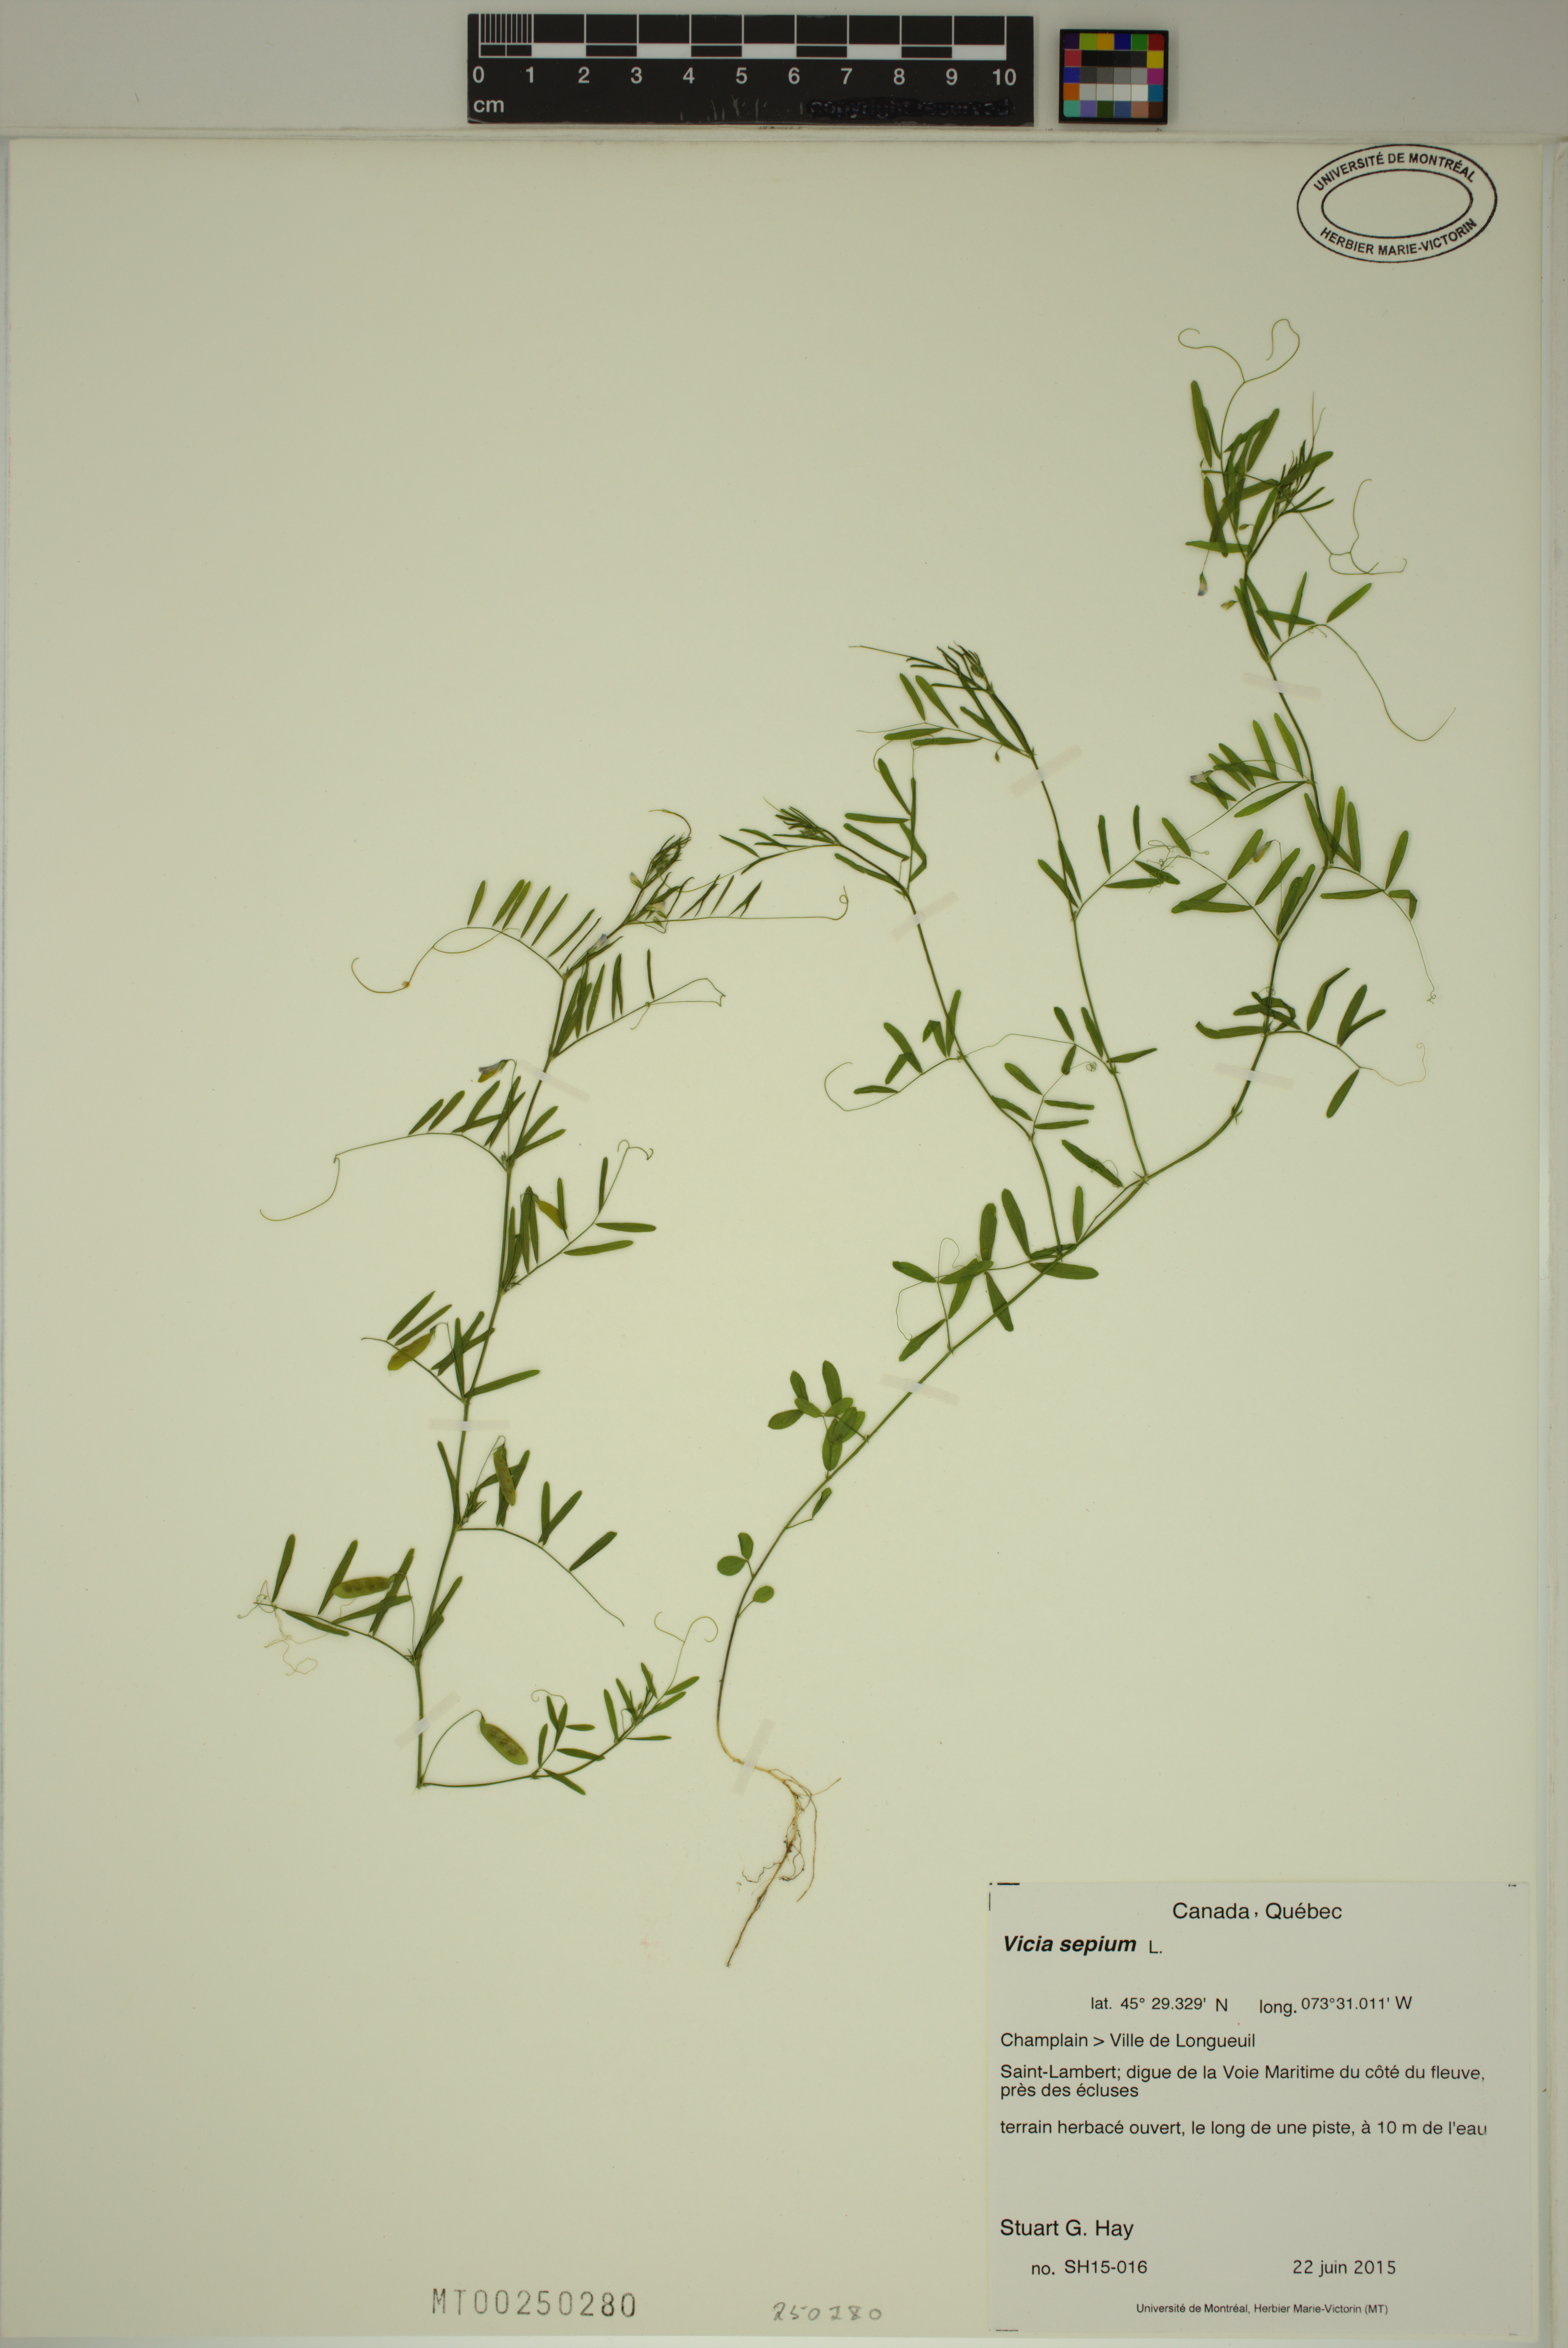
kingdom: Plantae
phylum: Tracheophyta
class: Magnoliopsida
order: Fabales
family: Fabaceae
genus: Vicia
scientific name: Vicia sepium
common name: Bush vetch
